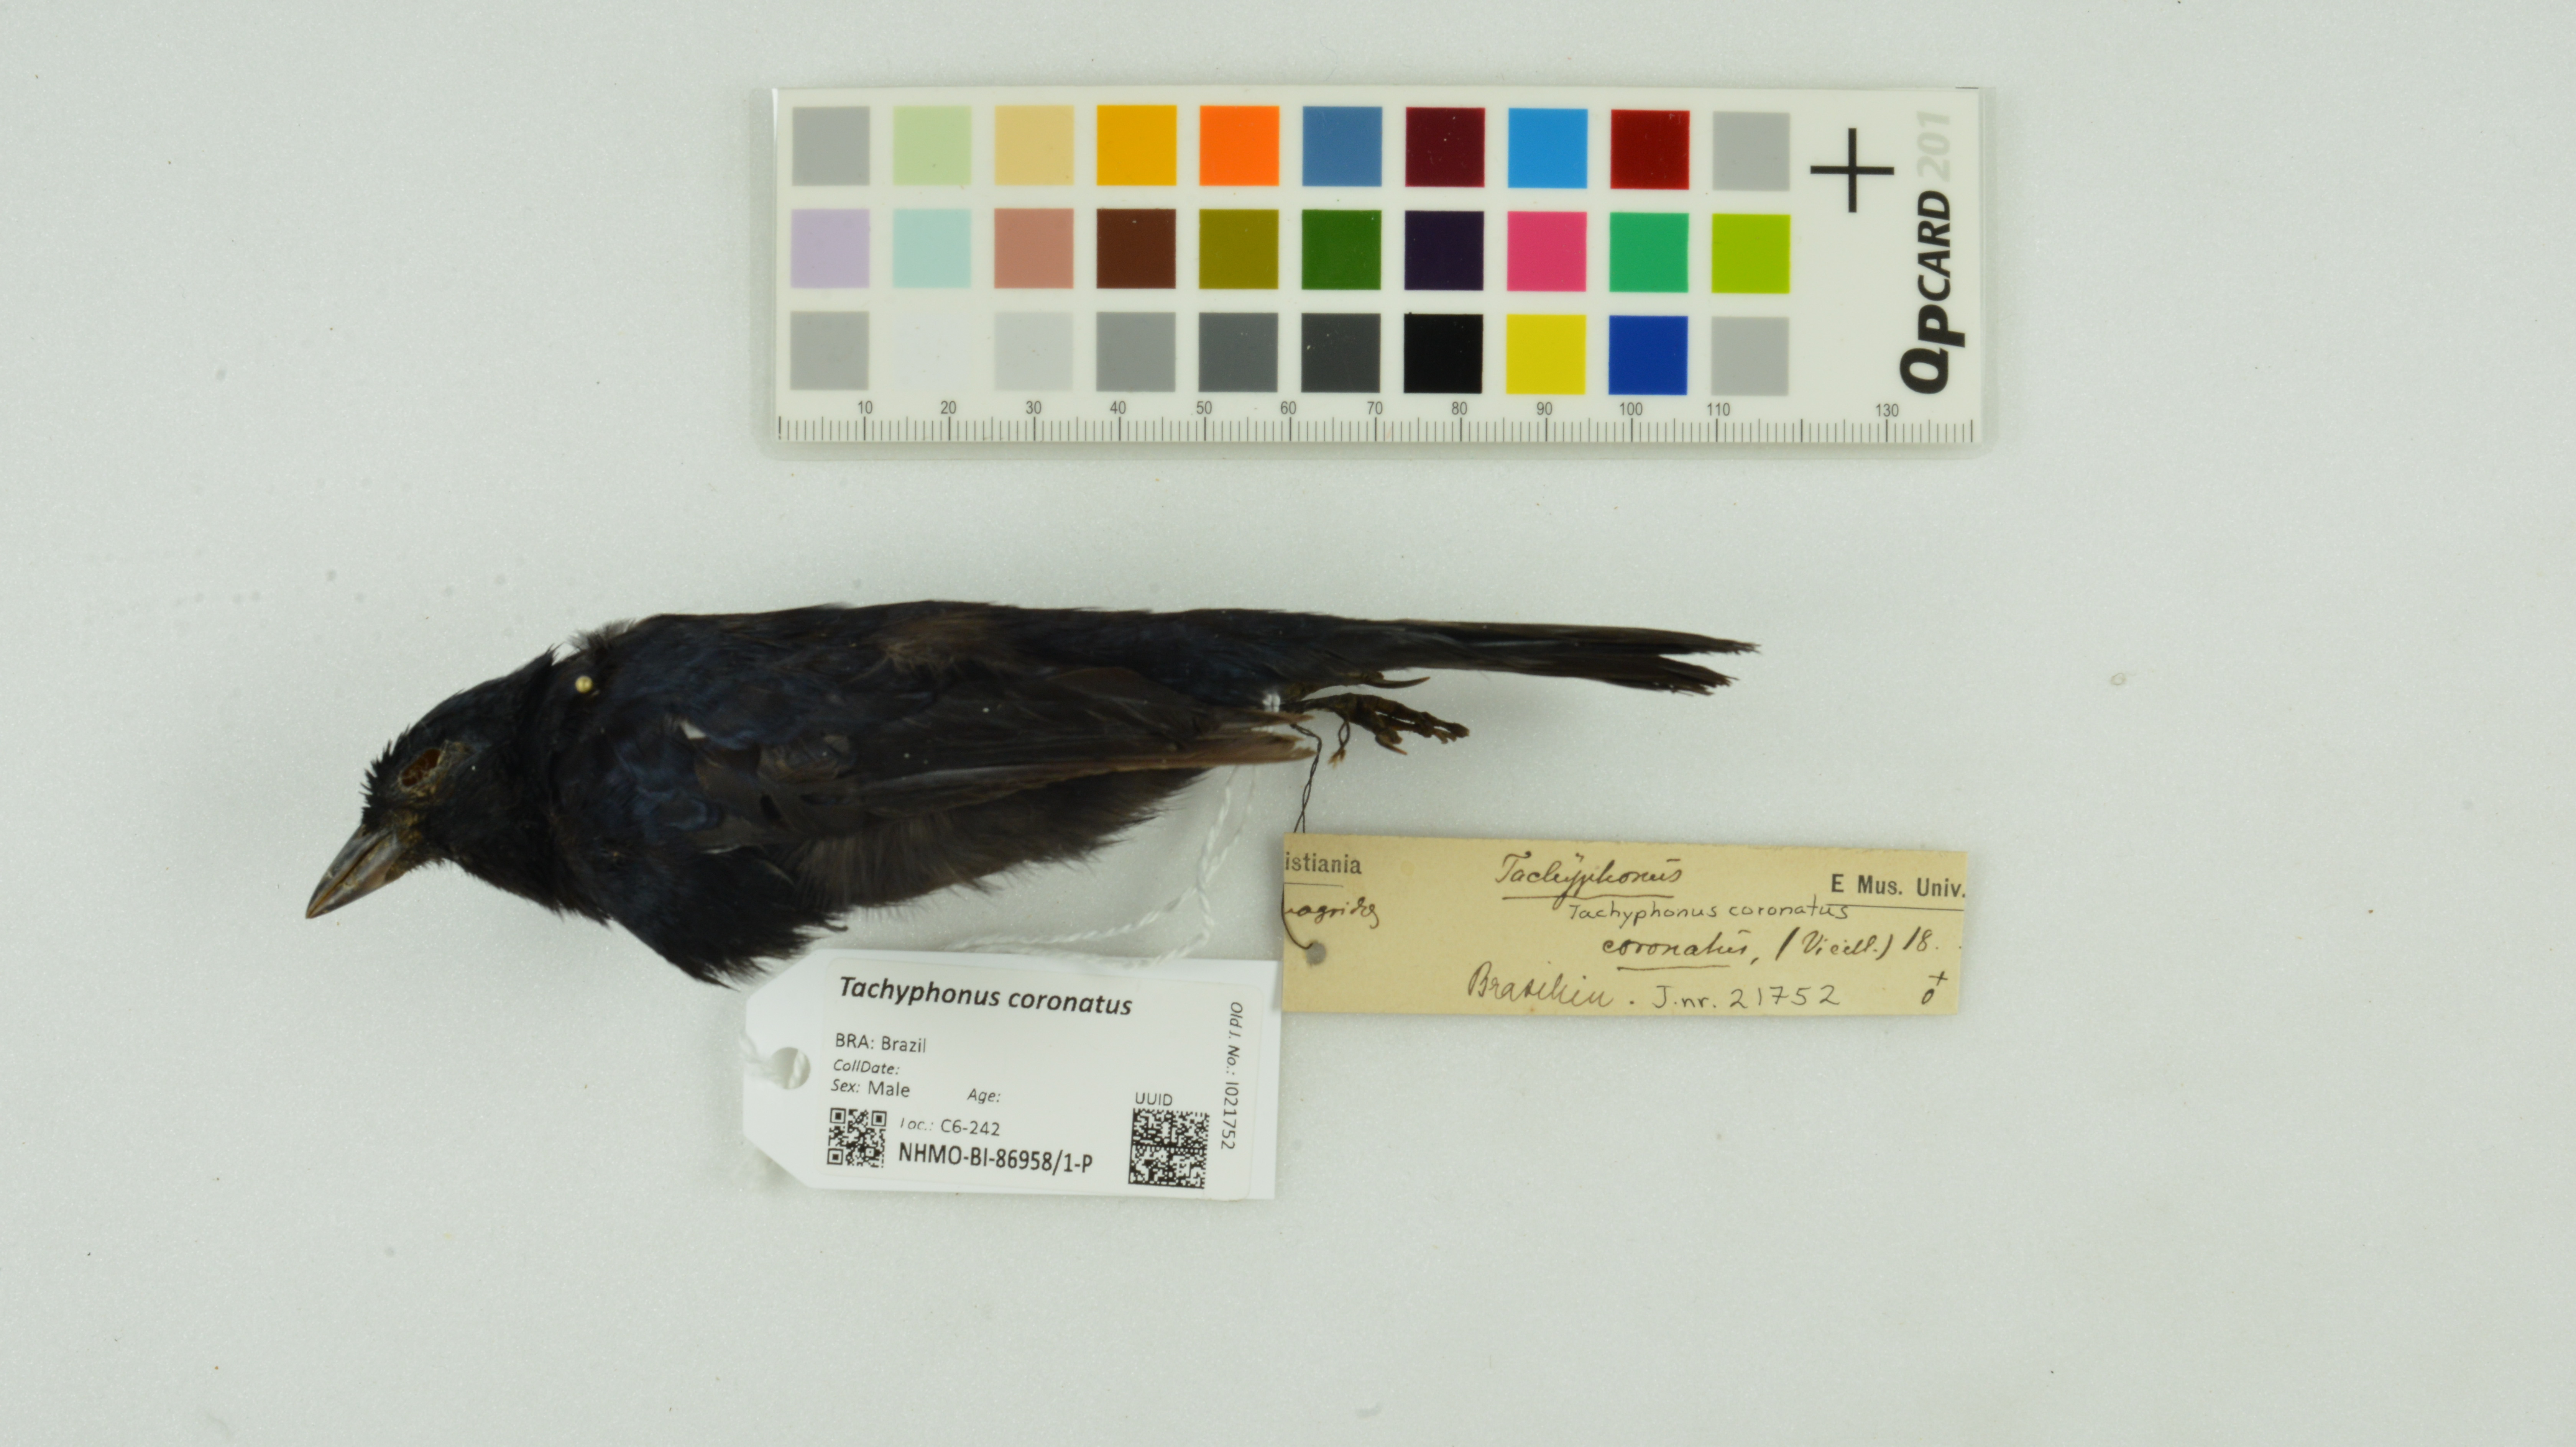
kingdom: Animalia
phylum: Chordata
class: Aves
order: Passeriformes
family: Thraupidae
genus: Tachyphonus
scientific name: Tachyphonus coronatus
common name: Ruby-crowned tanager
